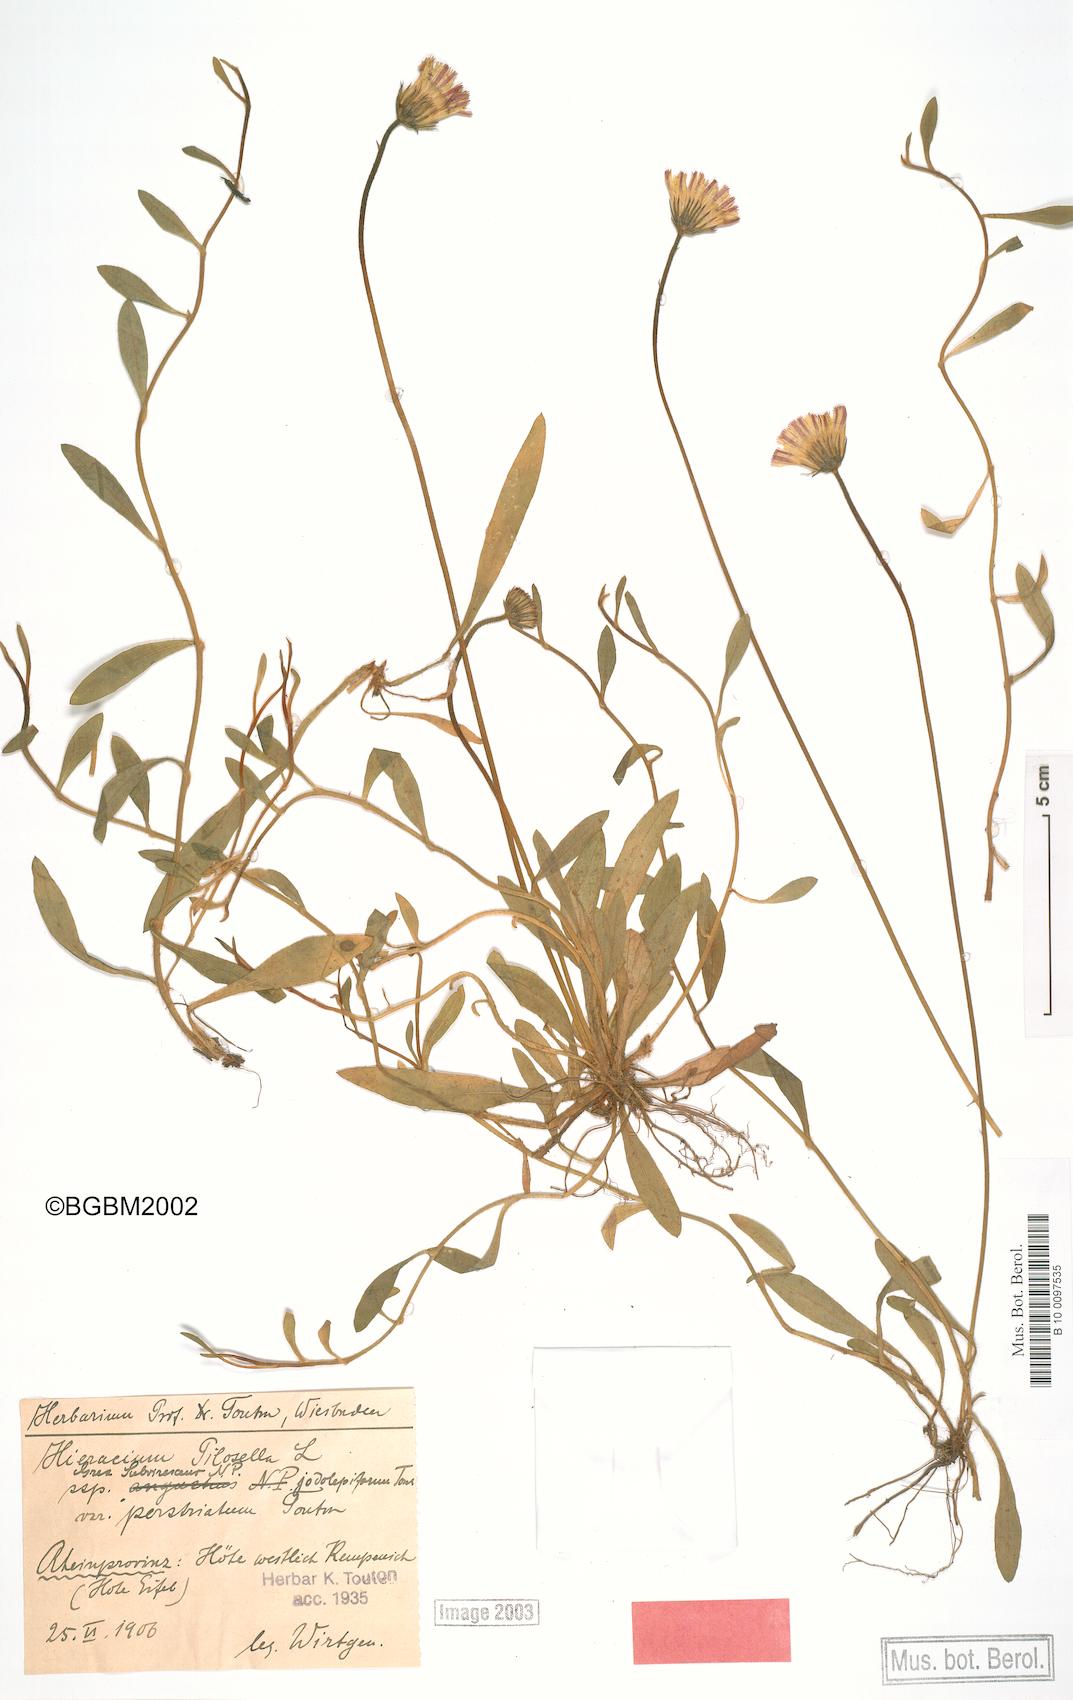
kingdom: Plantae
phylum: Tracheophyta
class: Magnoliopsida
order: Asterales
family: Asteraceae
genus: Pilosella
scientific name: Pilosella officinarum
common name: Mouse-ear hawkweed
